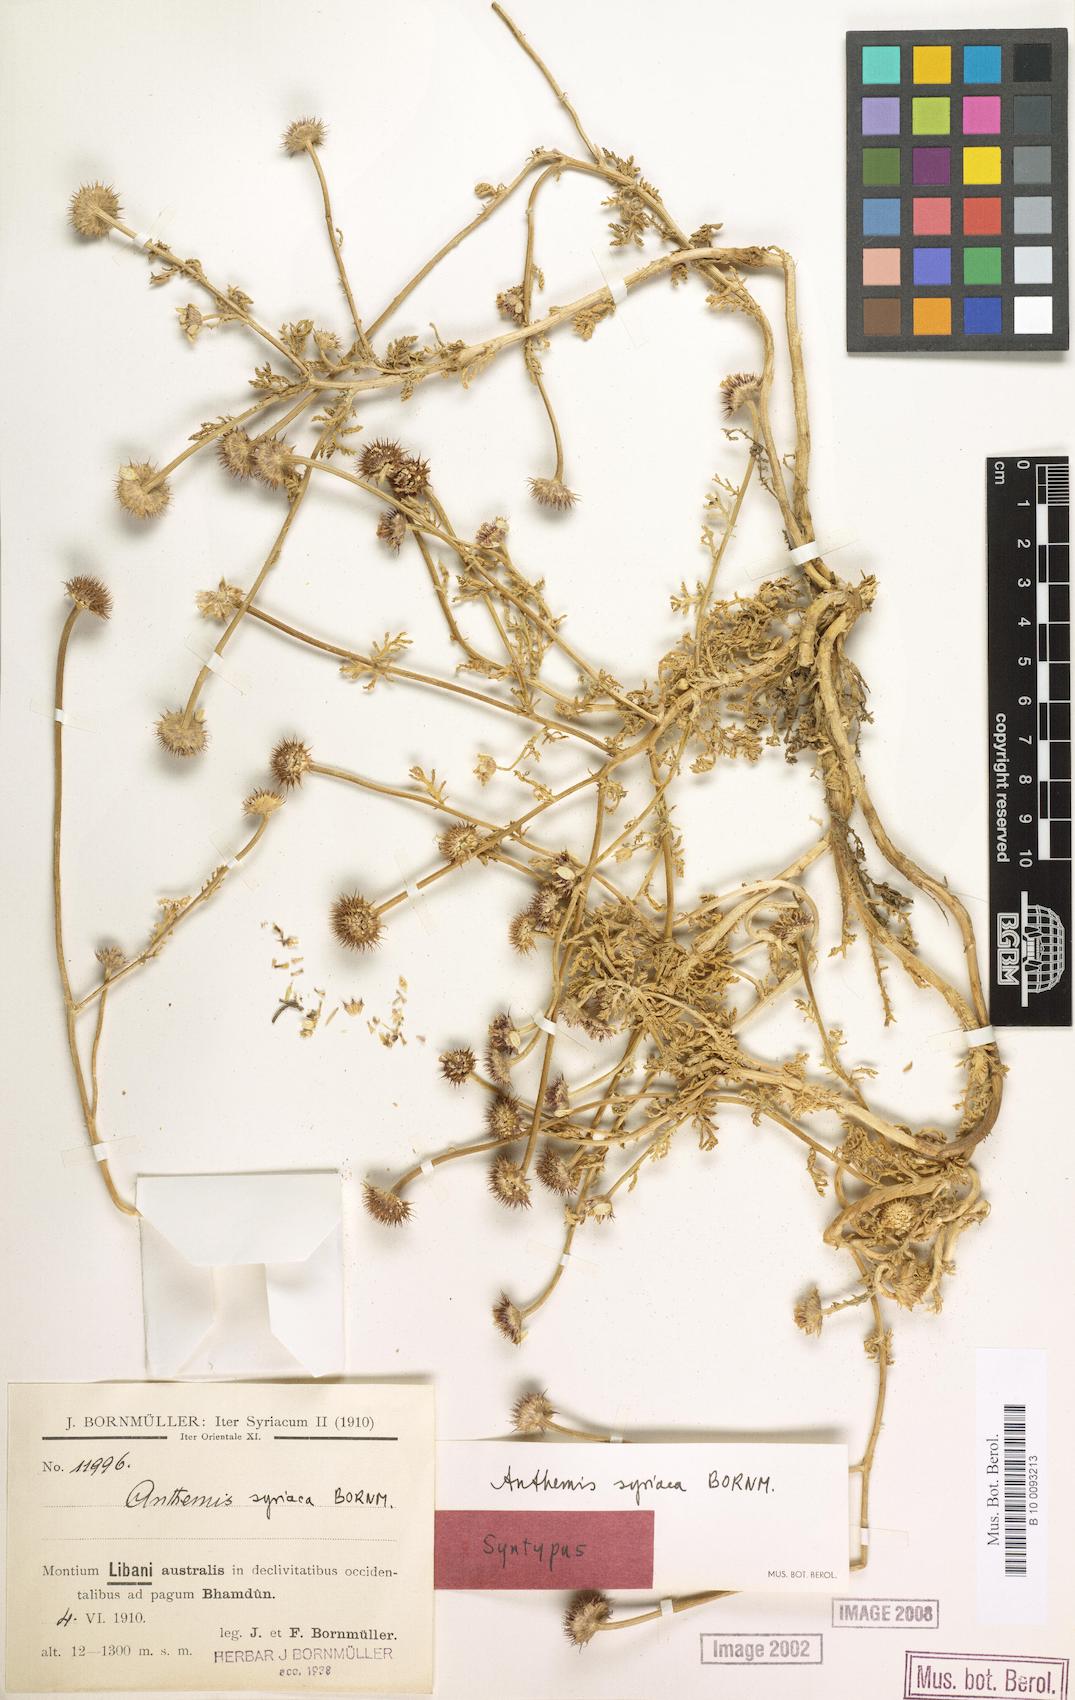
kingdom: Plantae
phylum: Tracheophyta
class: Magnoliopsida
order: Asterales
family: Asteraceae
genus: Cota
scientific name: Cota palaestina
